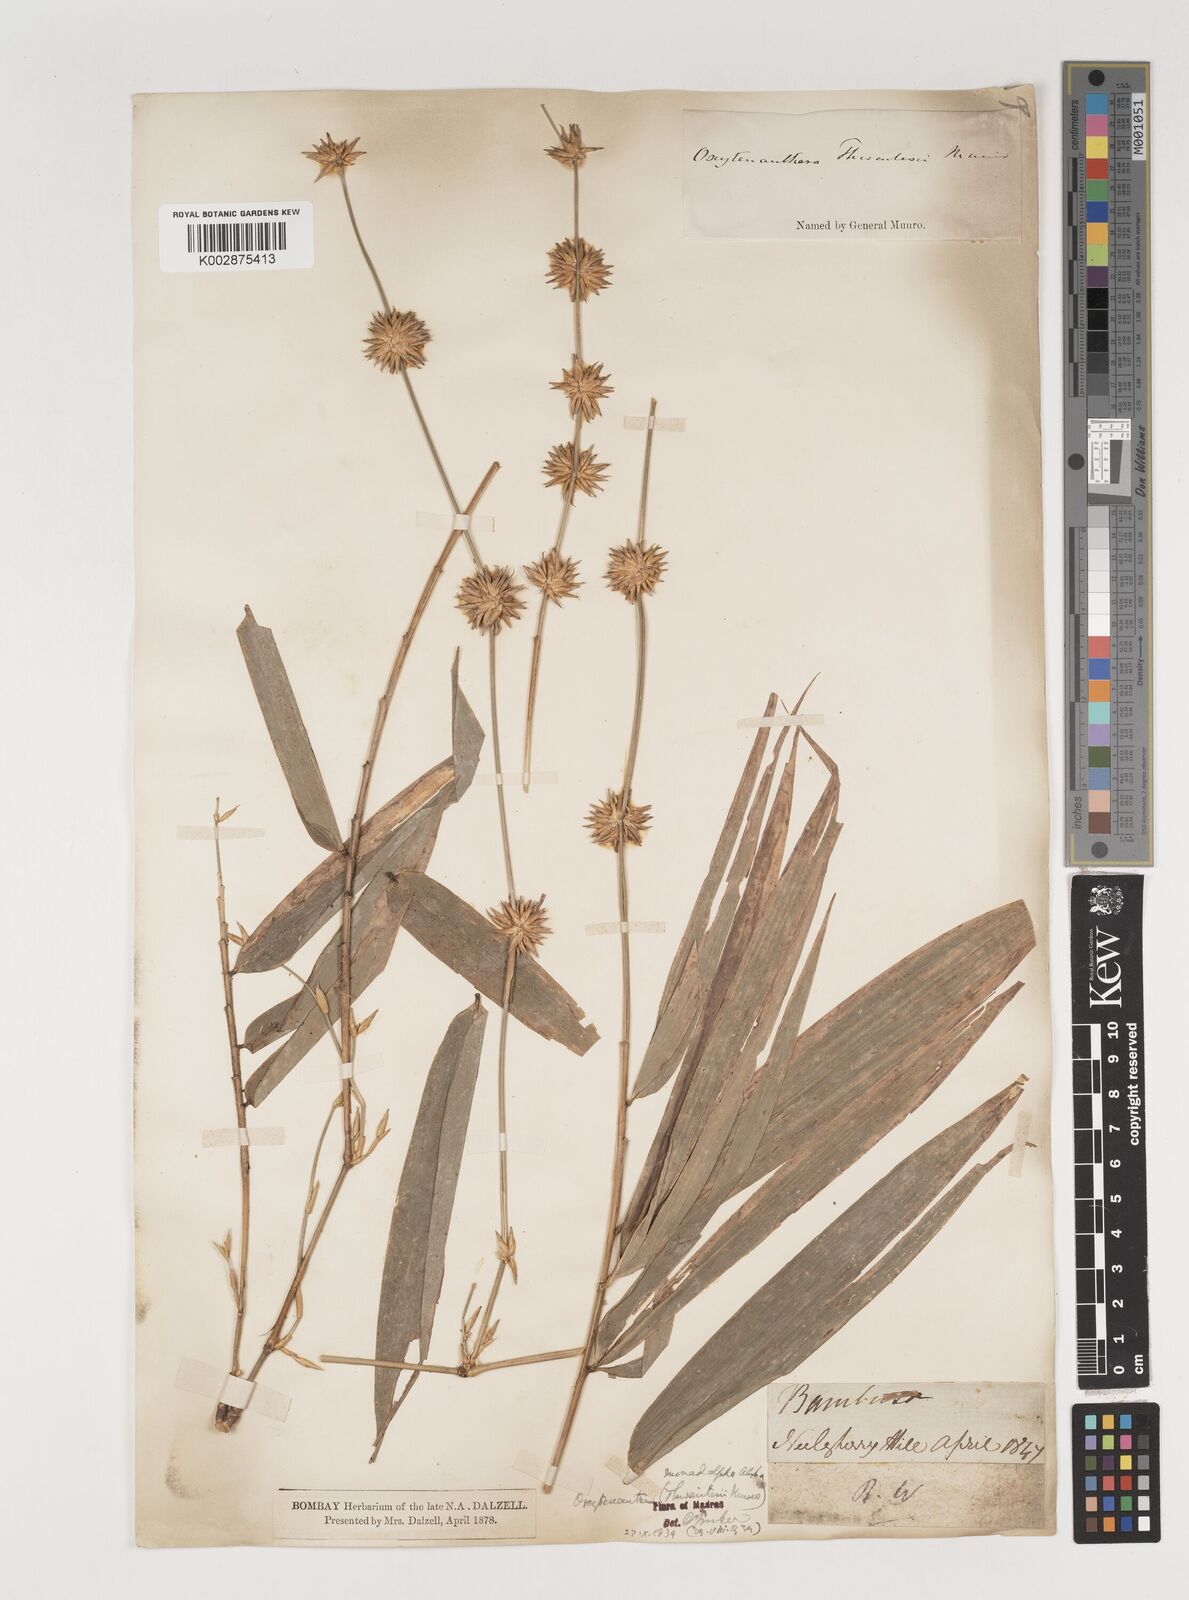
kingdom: Plantae
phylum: Tracheophyta
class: Liliopsida
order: Poales
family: Poaceae
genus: Pseudoxytenanthera
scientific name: Pseudoxytenanthera monadelpha
